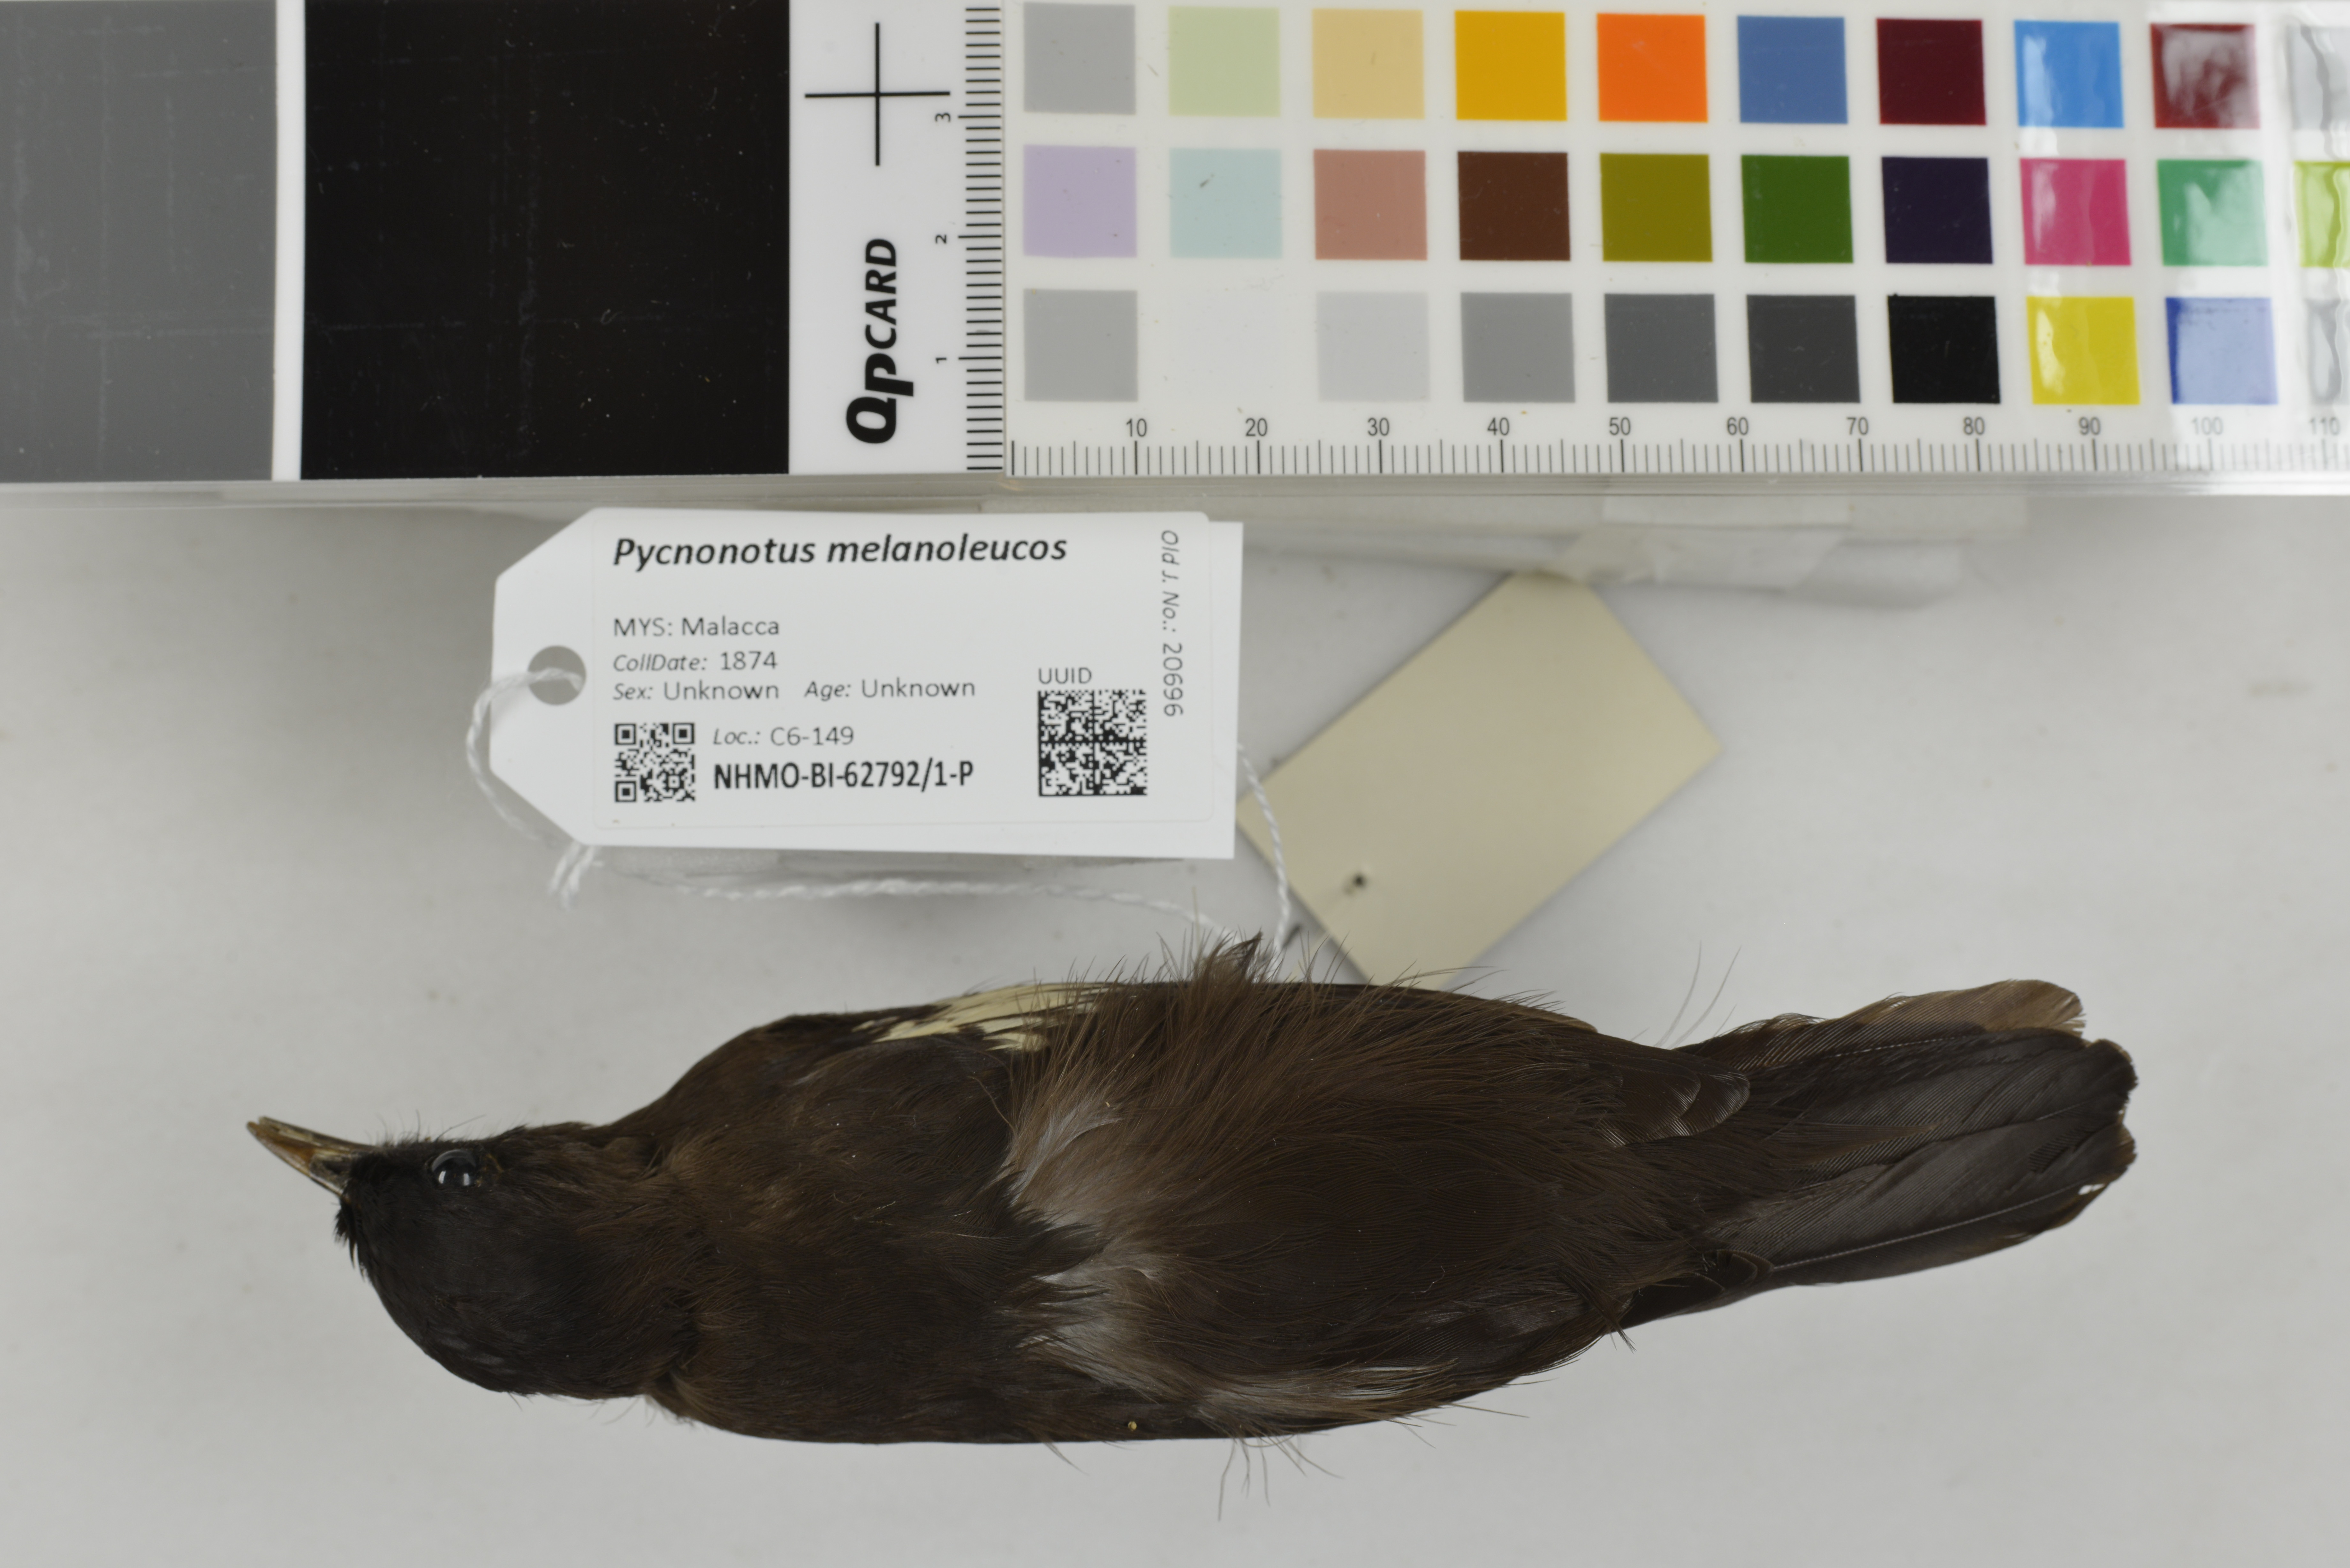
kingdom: Animalia
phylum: Chordata
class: Aves
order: Passeriformes
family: Pycnonotidae
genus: Pycnonotus
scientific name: Pycnonotus melanoleucos
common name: Black-and-white bulbul
